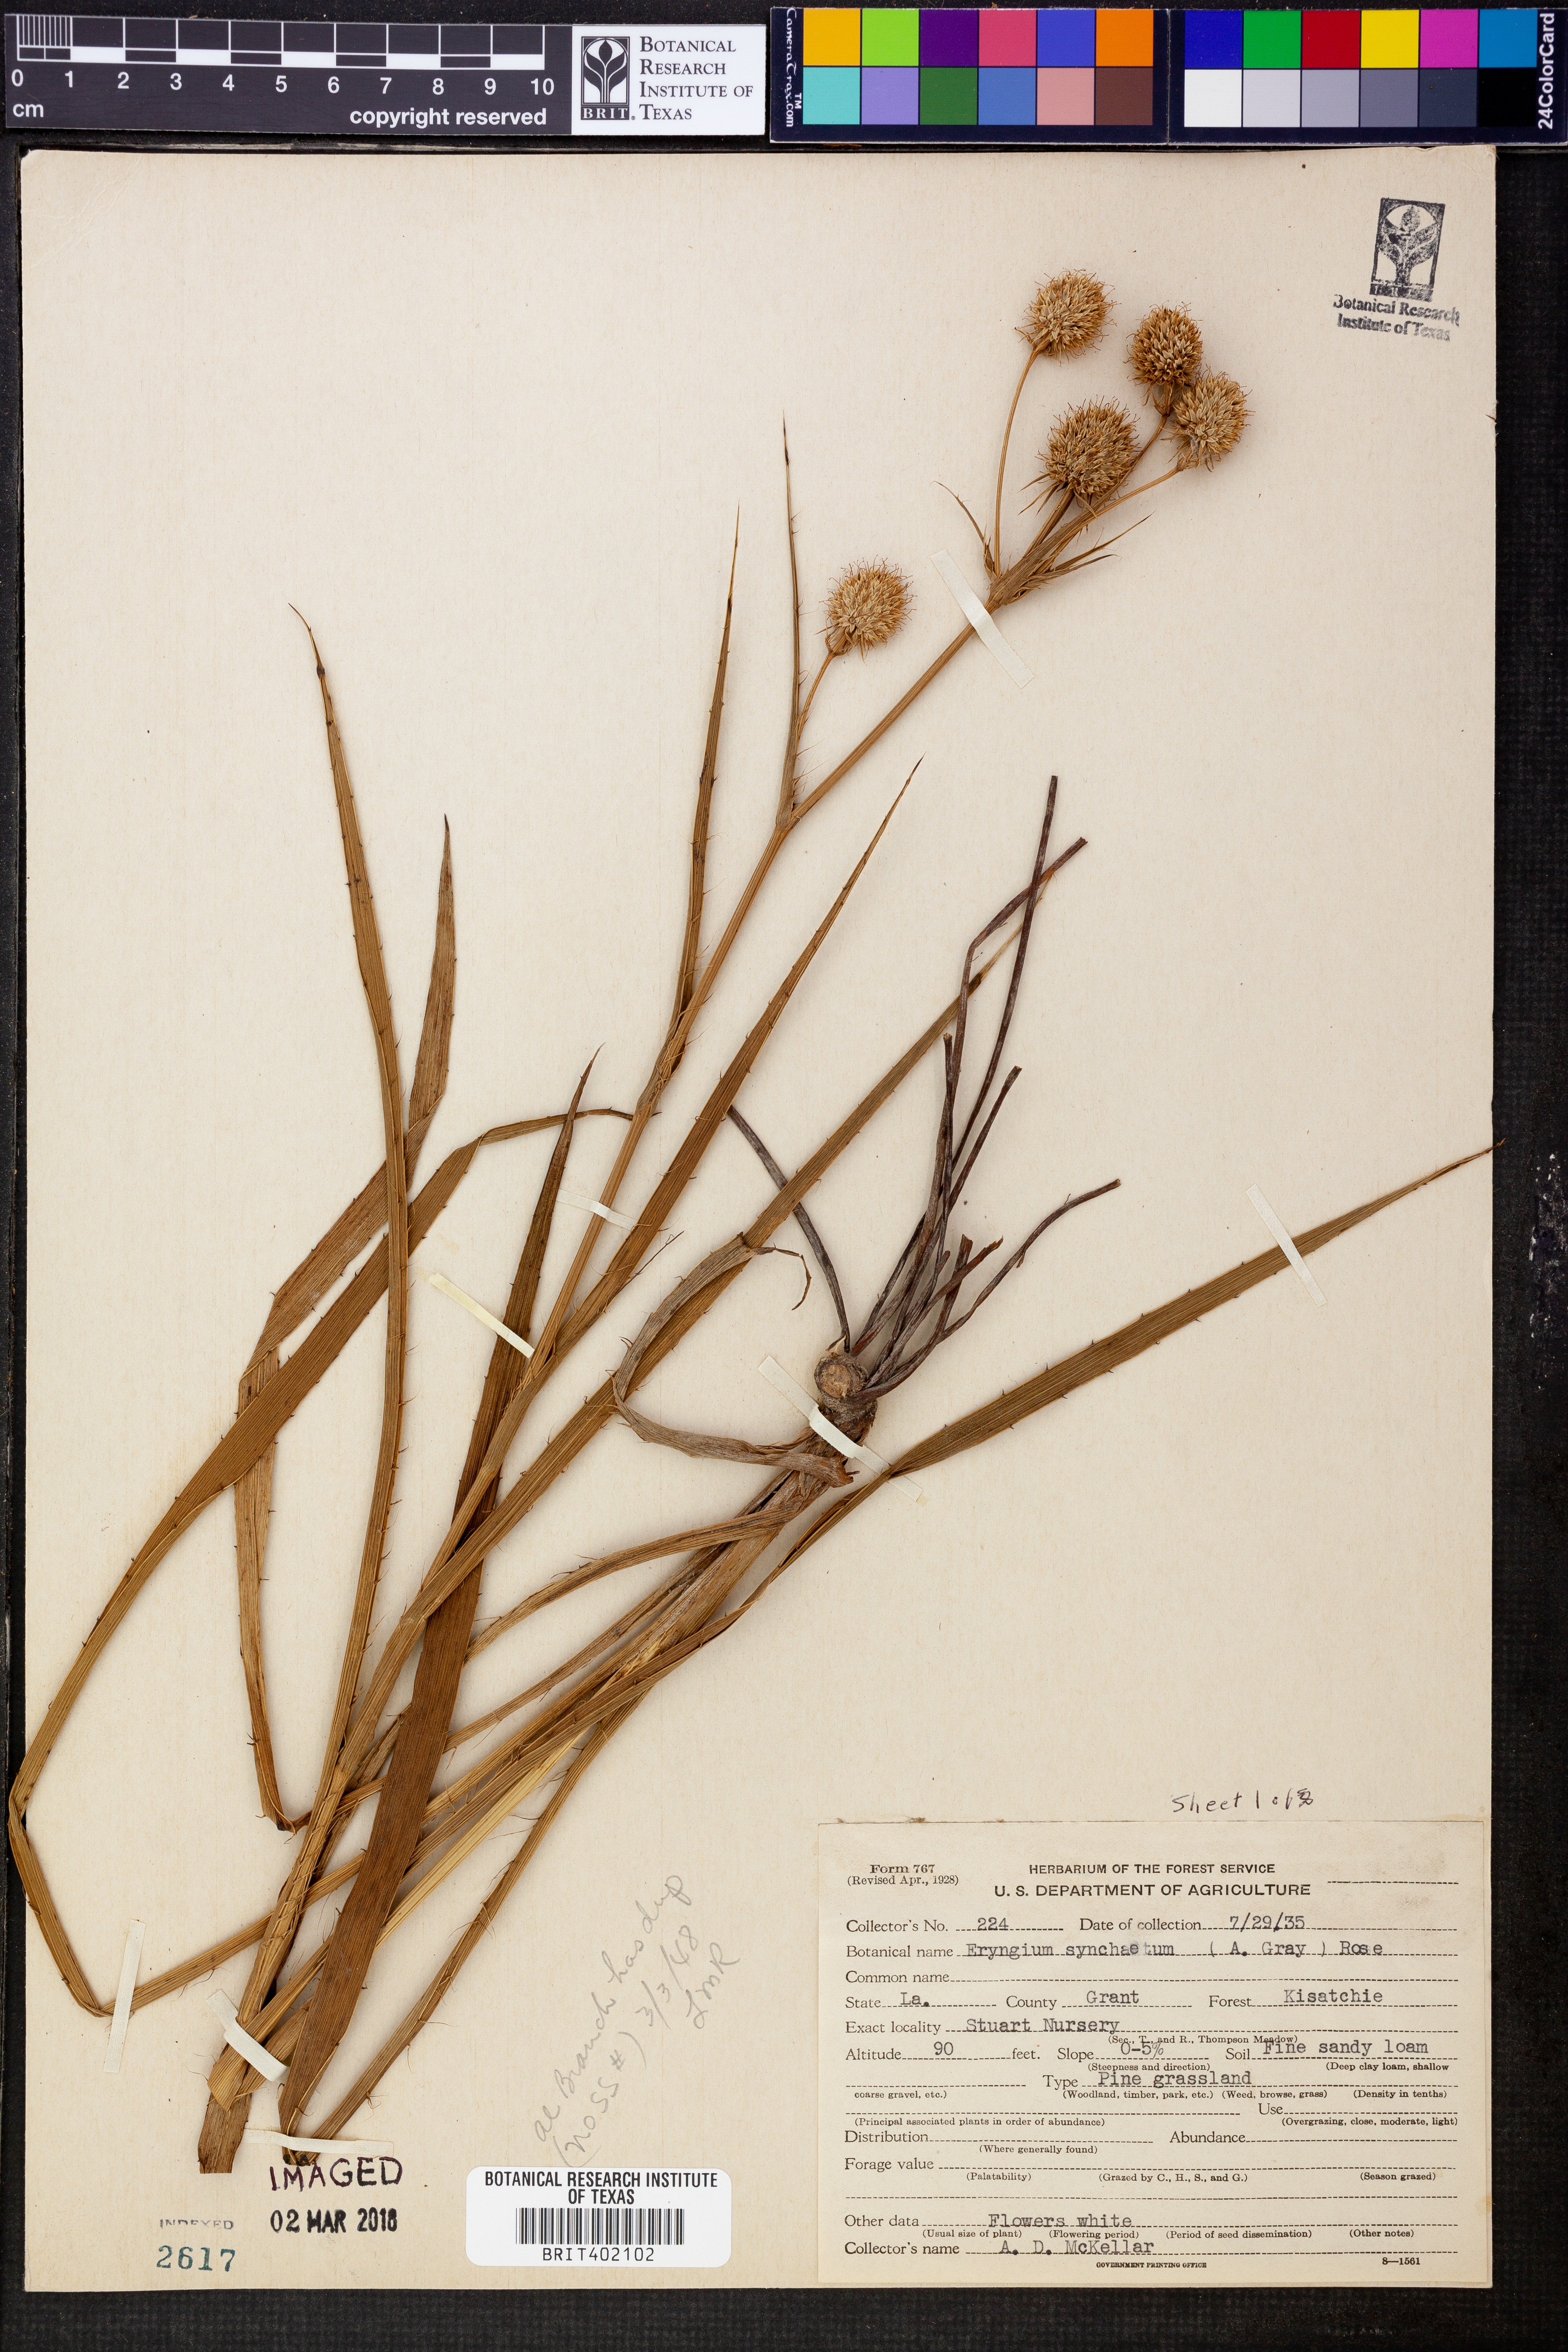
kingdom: Plantae
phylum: Tracheophyta
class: Magnoliopsida
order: Apiales
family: Apiaceae
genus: Eryngium
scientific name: Eryngium
